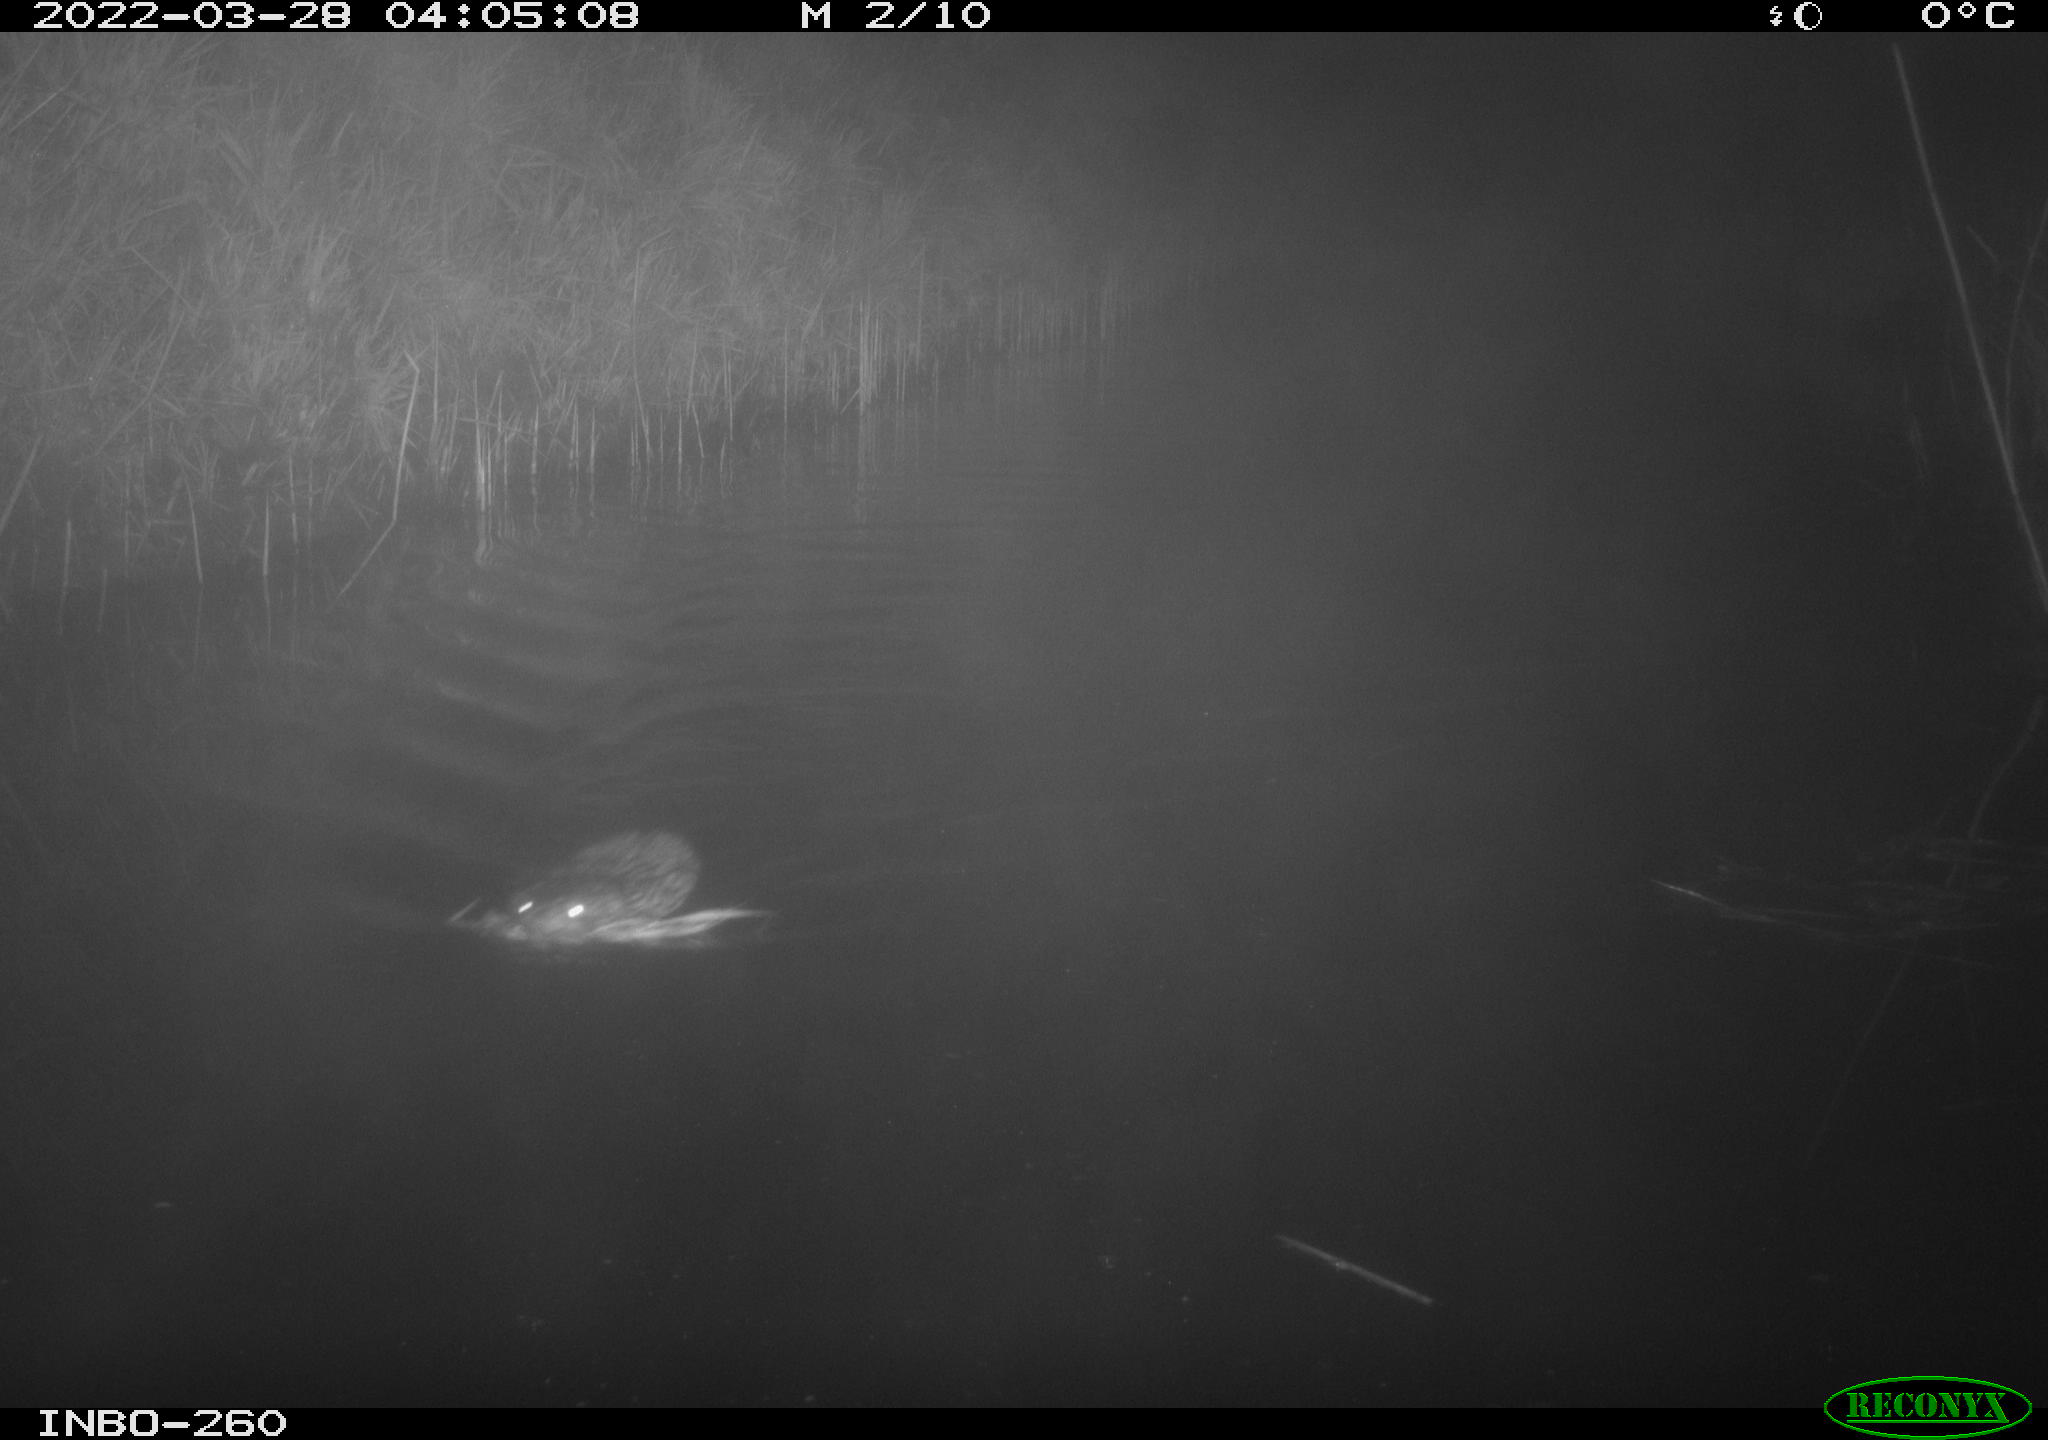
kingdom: Animalia
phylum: Chordata
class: Mammalia
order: Rodentia
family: Cricetidae
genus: Ondatra
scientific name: Ondatra zibethicus
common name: Muskrat
